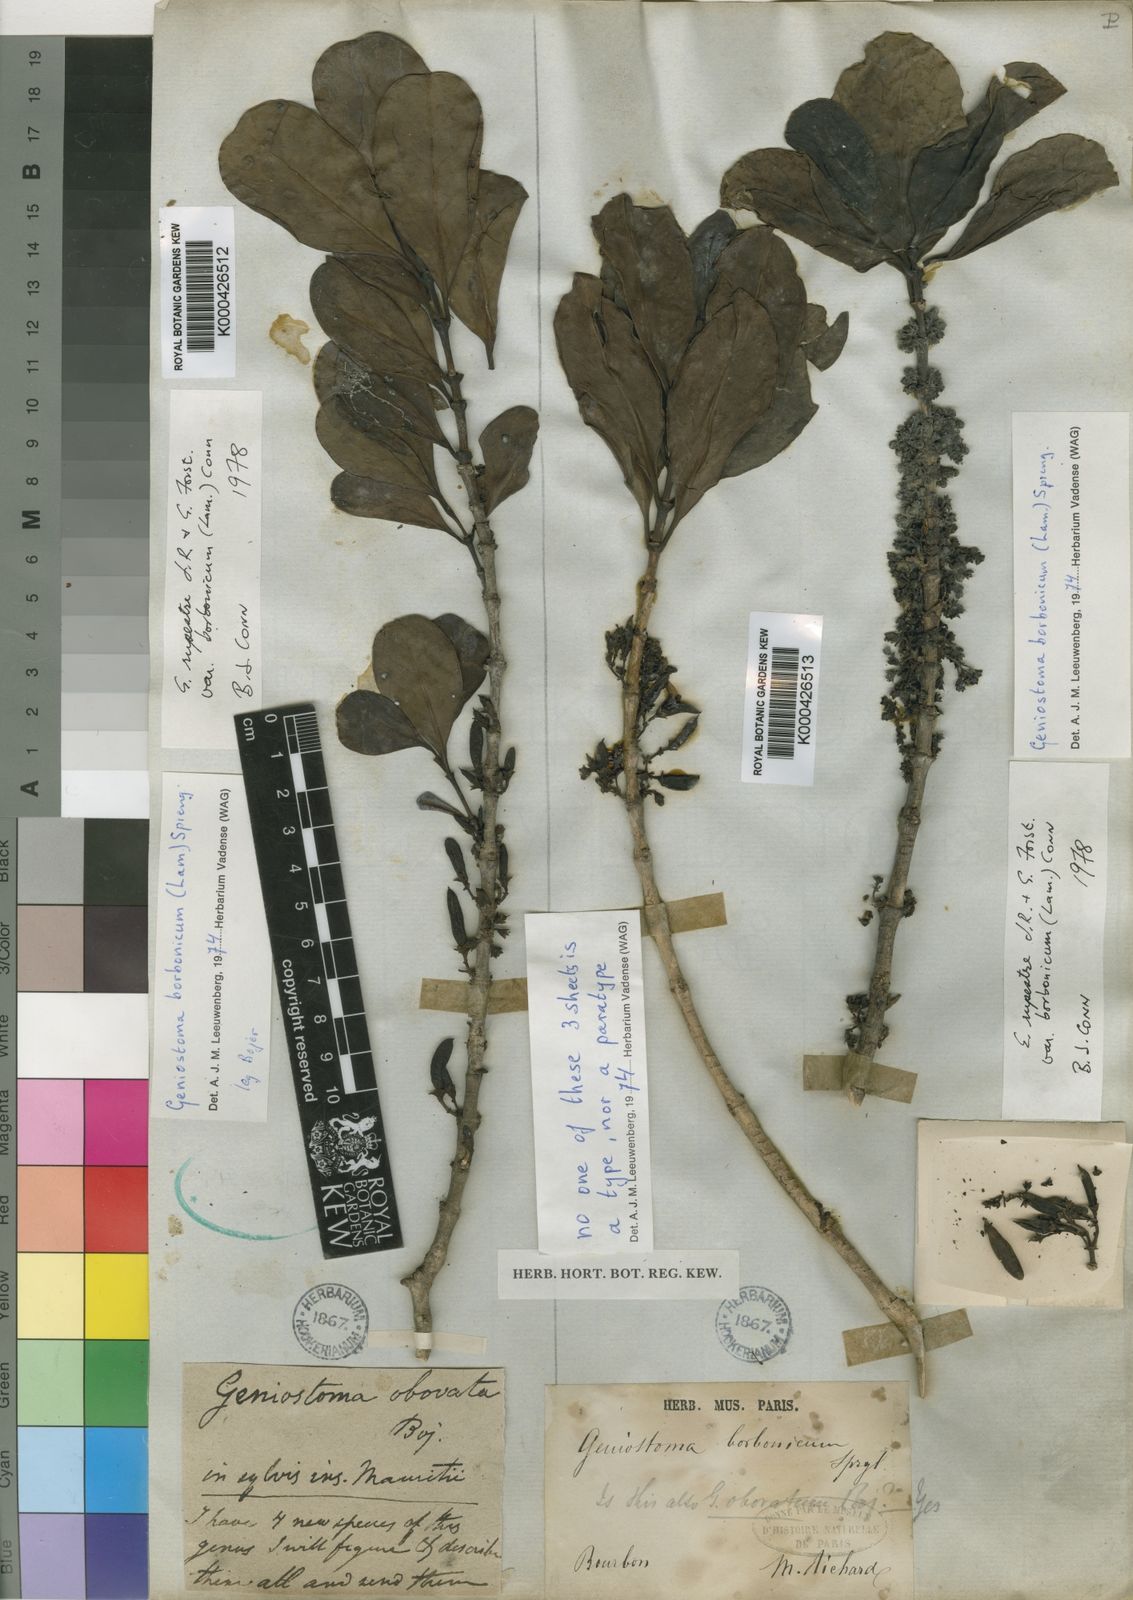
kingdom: Plantae
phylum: Tracheophyta
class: Magnoliopsida
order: Gentianales
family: Loganiaceae
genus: Geniostoma
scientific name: Geniostoma rupestre
